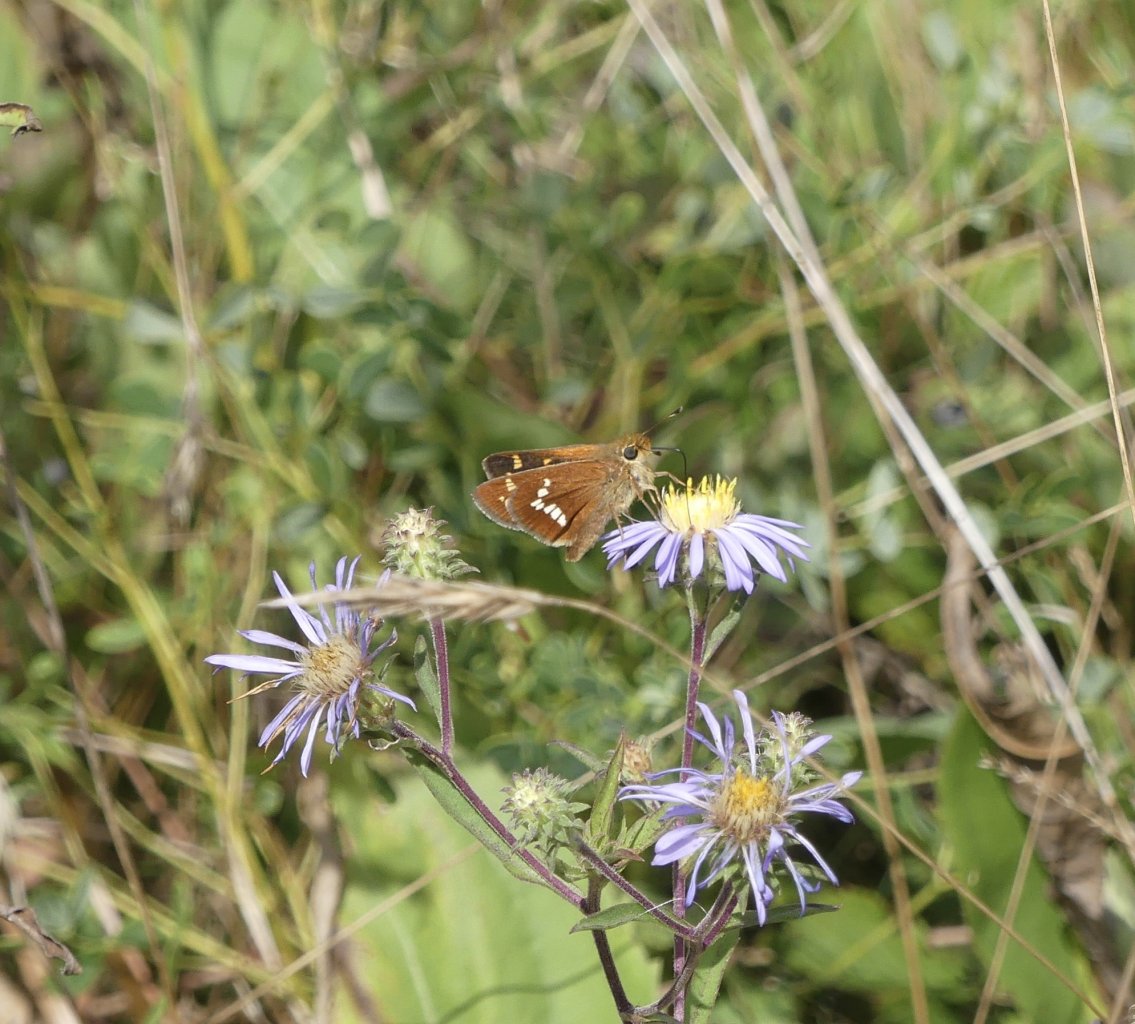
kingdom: Animalia
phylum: Arthropoda
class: Insecta
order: Lepidoptera
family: Hesperiidae
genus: Hesperia
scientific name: Hesperia leonardus
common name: Leonard's Skipper
